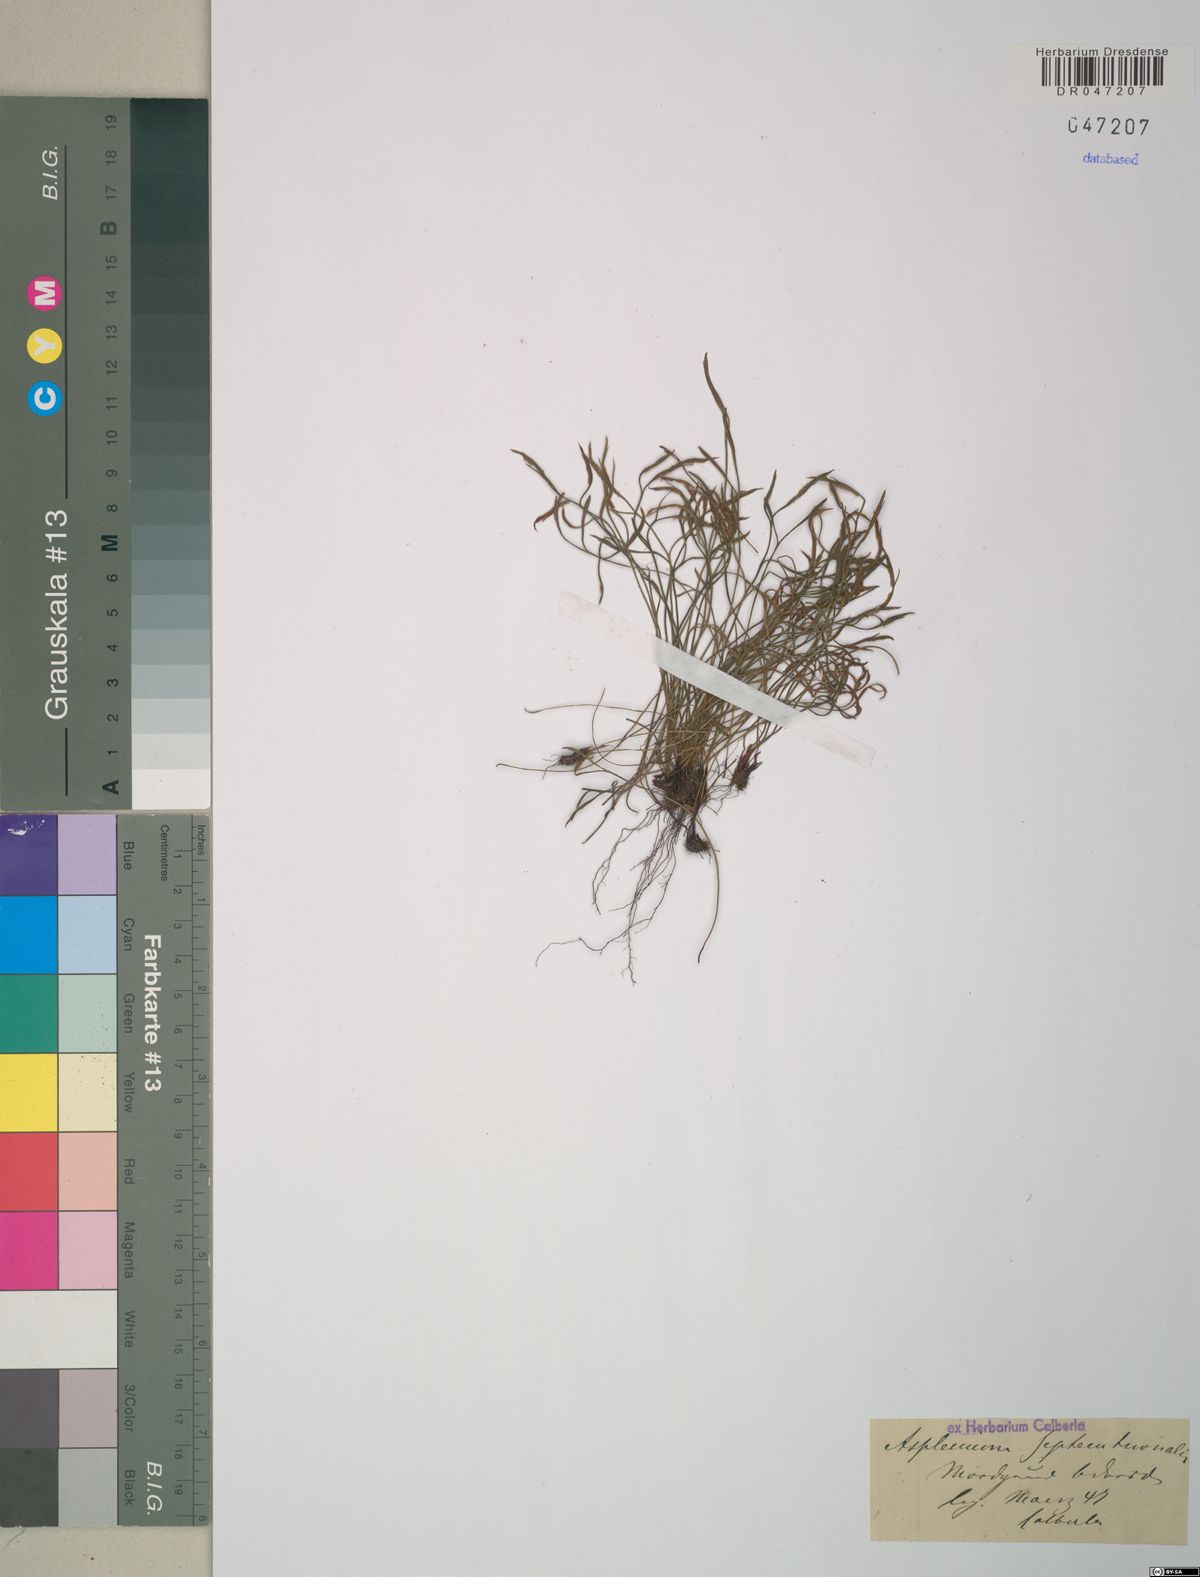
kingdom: Plantae
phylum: Tracheophyta
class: Polypodiopsida
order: Polypodiales
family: Aspleniaceae
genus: Asplenium
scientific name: Asplenium septentrionale
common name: Forked spleenwort
